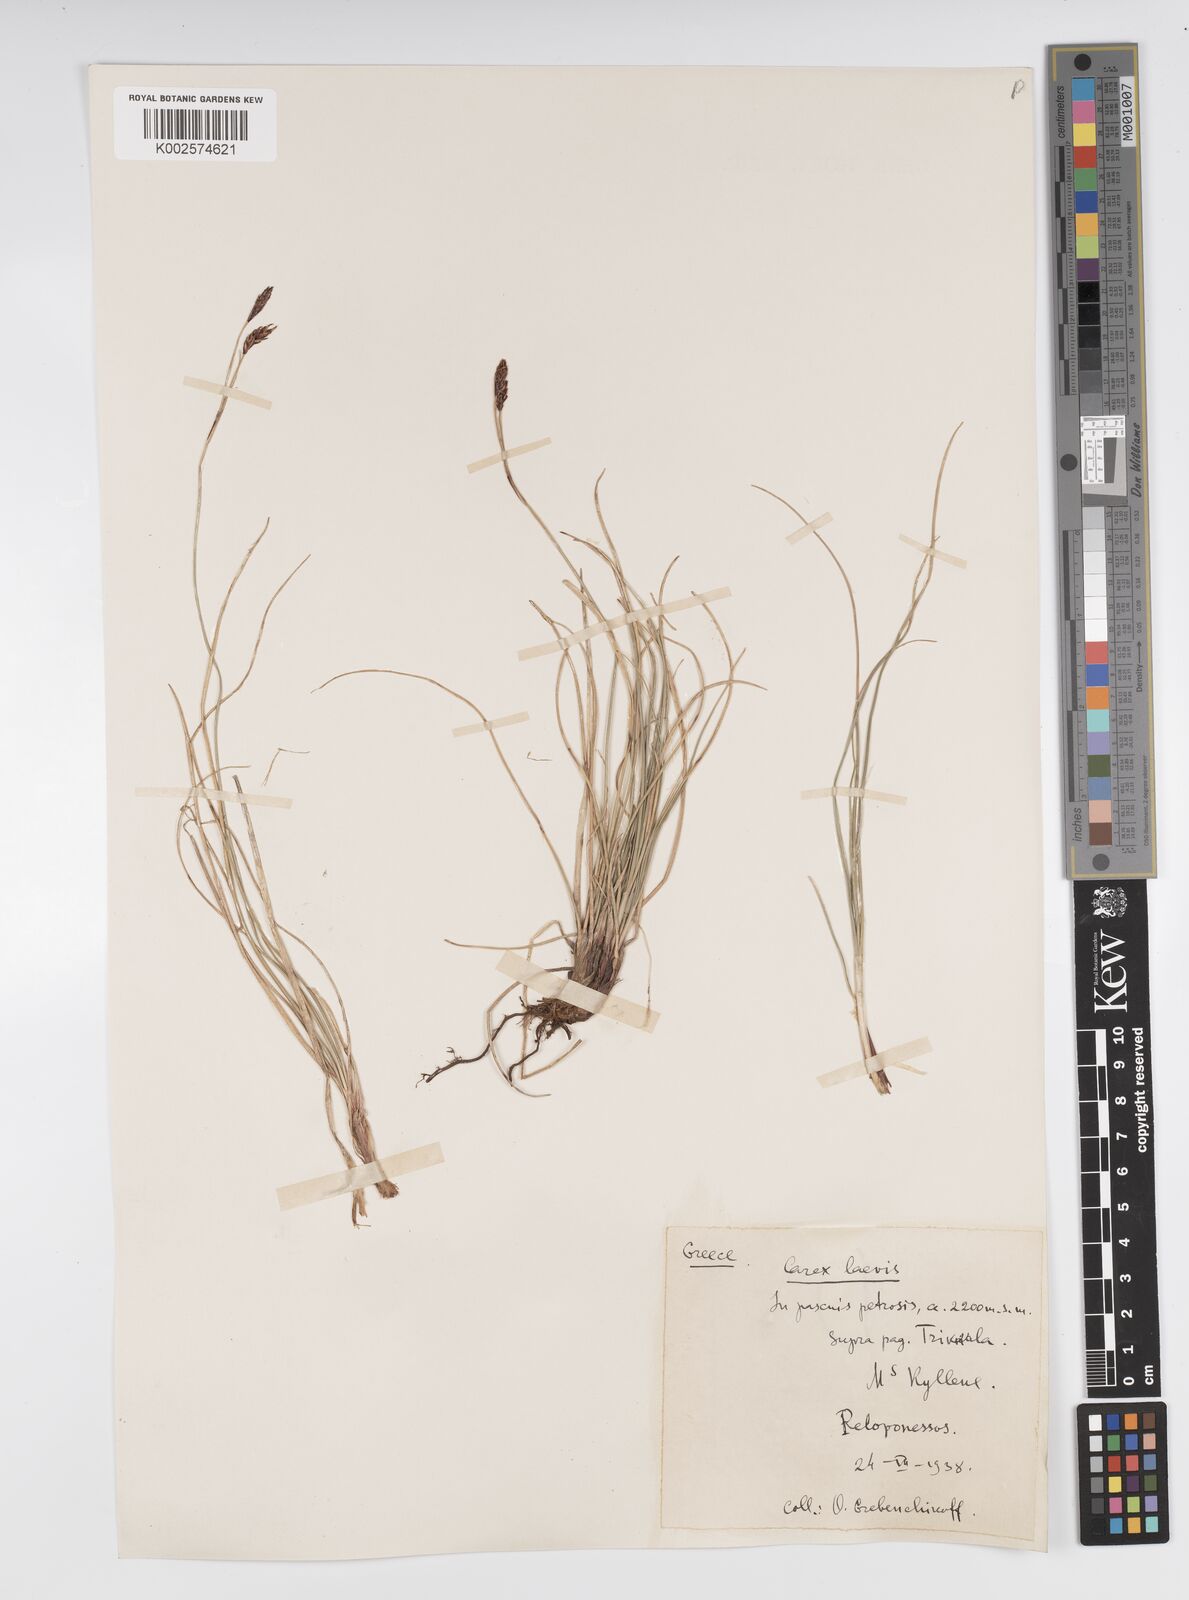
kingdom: Plantae
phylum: Tracheophyta
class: Liliopsida
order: Poales
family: Cyperaceae
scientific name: Cyperaceae
